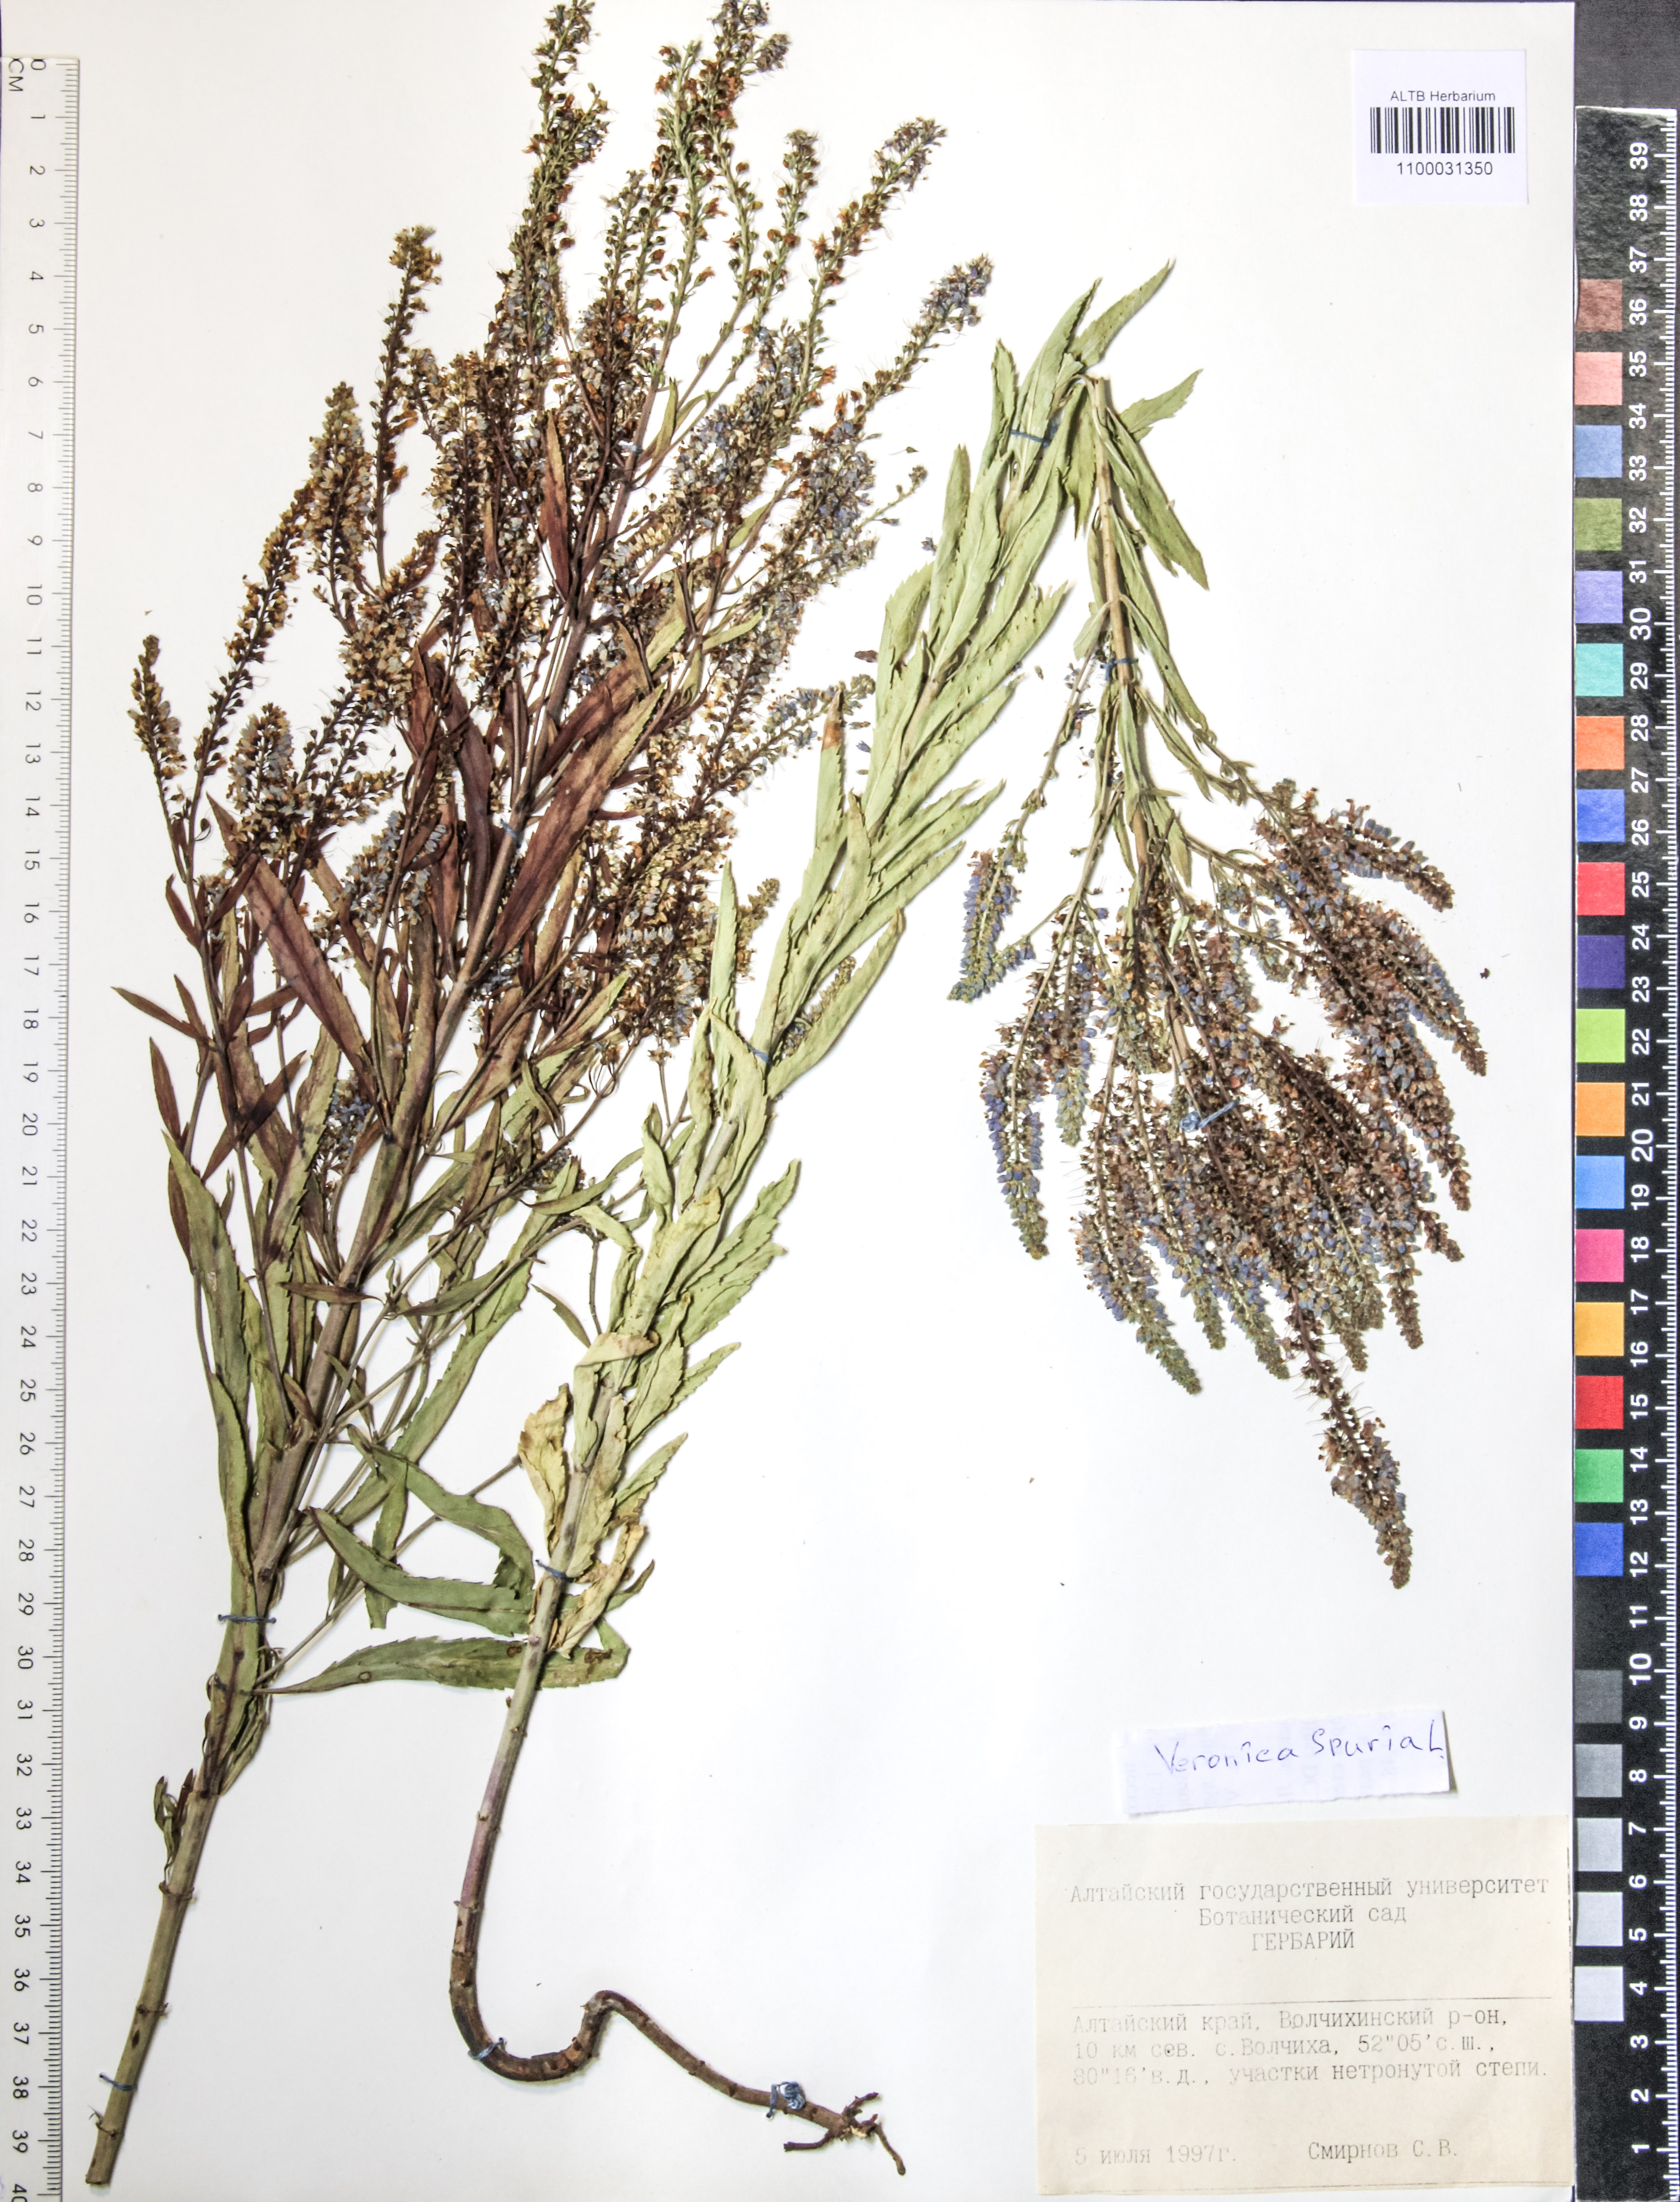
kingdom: Plantae
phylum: Tracheophyta
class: Magnoliopsida
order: Lamiales
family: Plantaginaceae
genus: Veronica
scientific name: Veronica spuria
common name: Bastard speedwell
